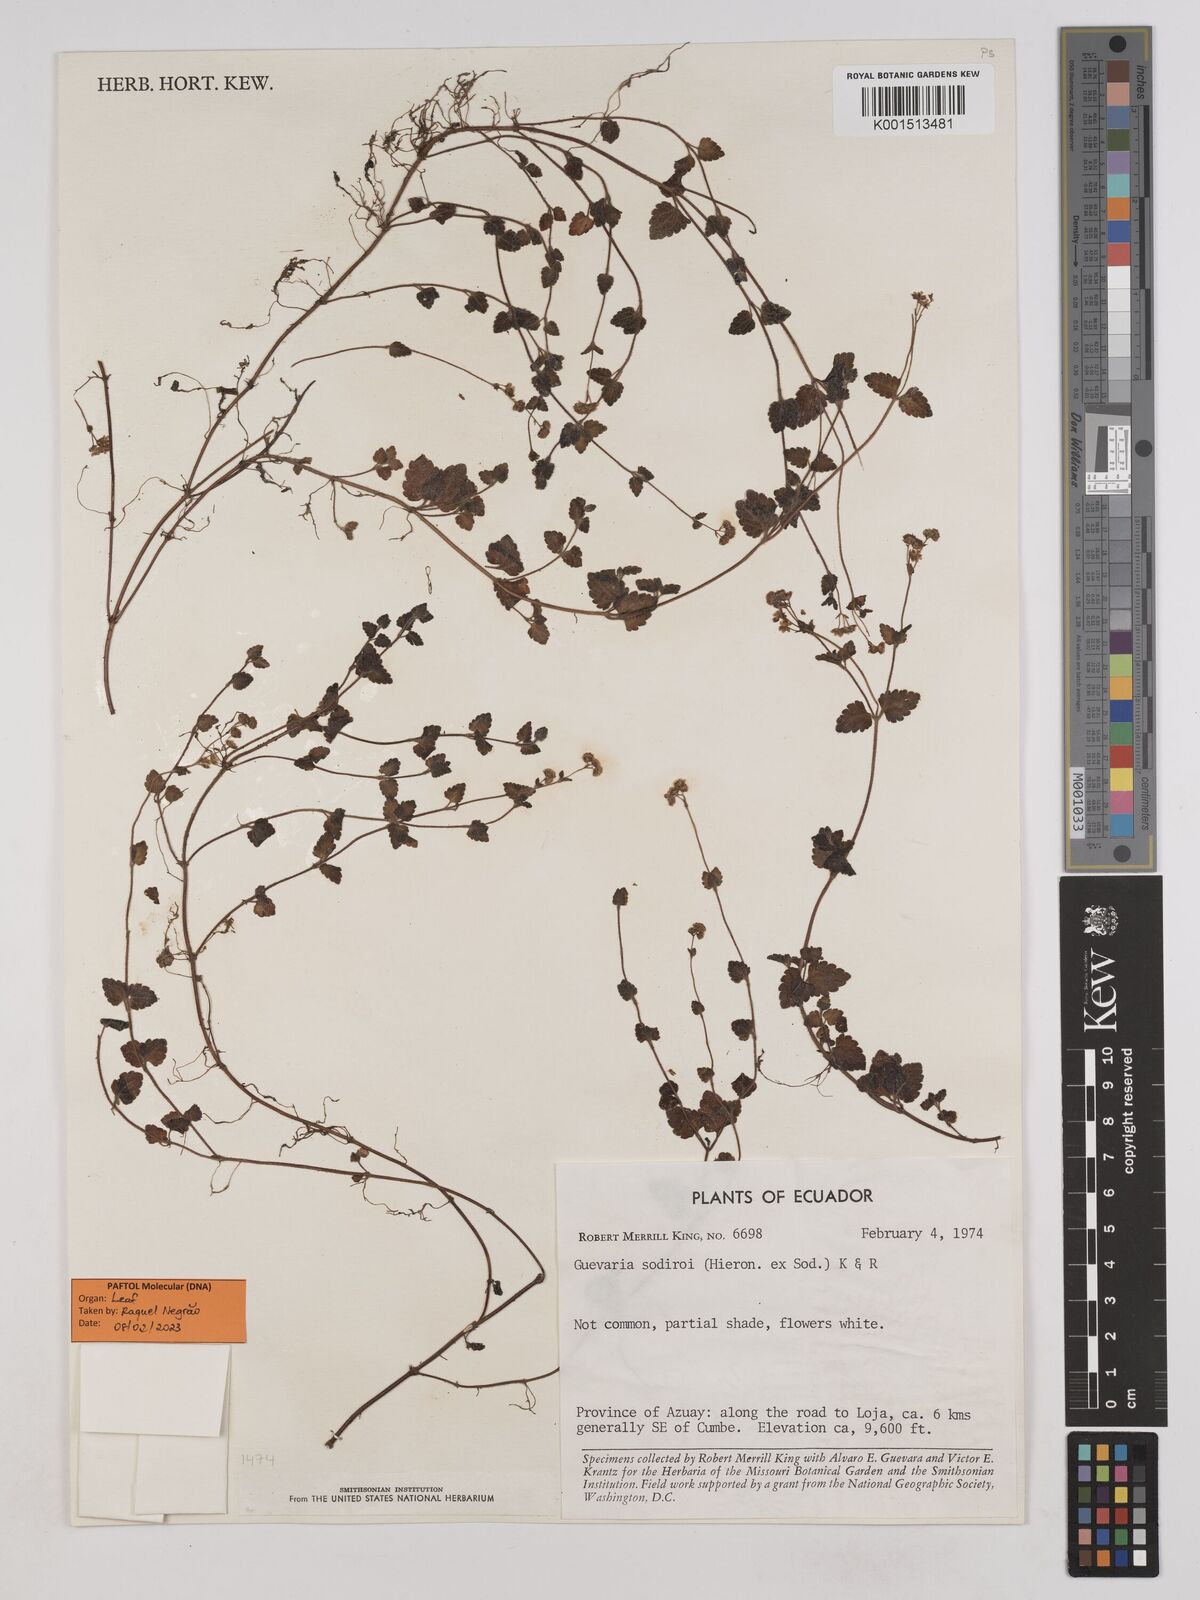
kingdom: Plantae
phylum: Tracheophyta
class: Magnoliopsida
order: Asterales
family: Asteraceae
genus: Guevaria
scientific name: Guevaria sodiroi
